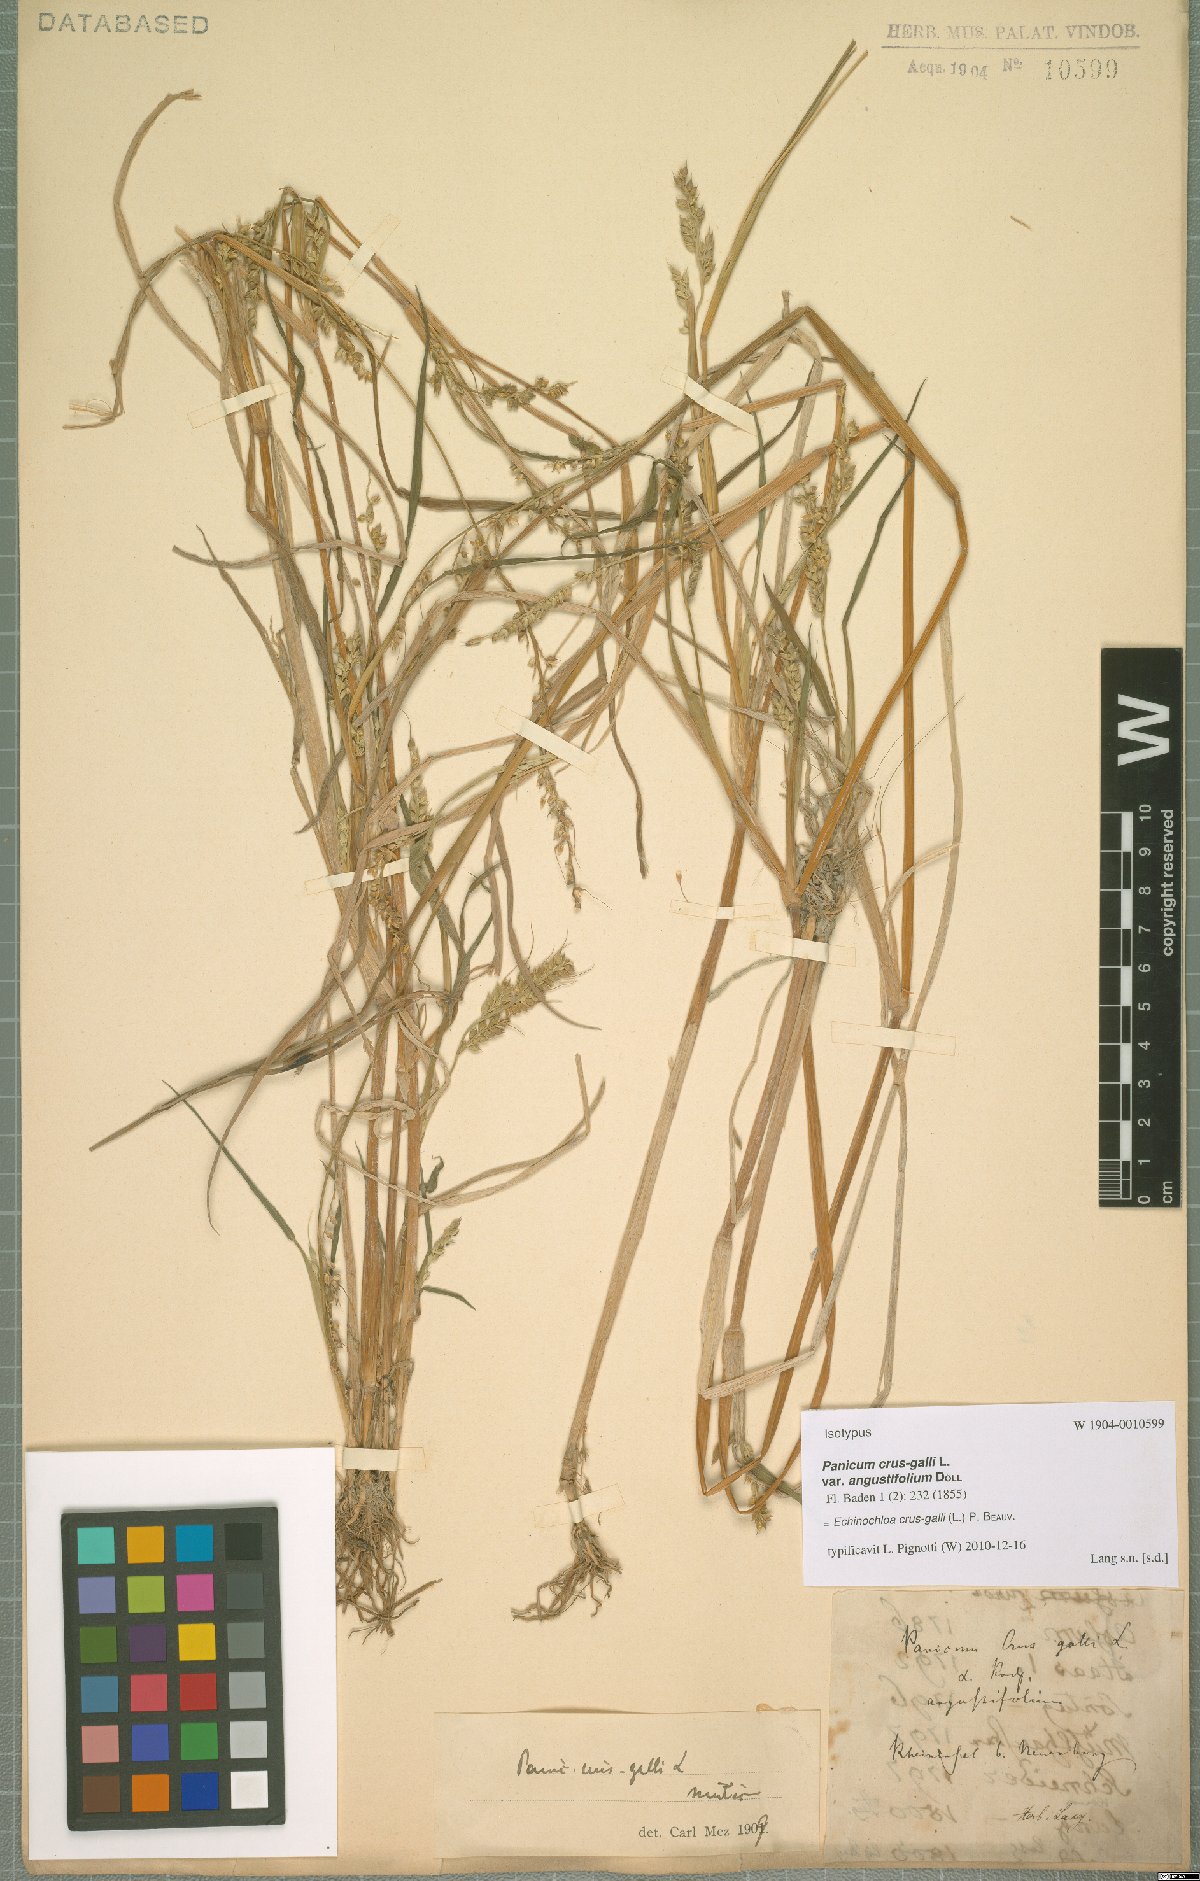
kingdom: Plantae
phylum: Tracheophyta
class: Liliopsida
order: Poales
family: Poaceae
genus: Echinochloa
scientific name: Echinochloa crus-galli
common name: Cockspur
